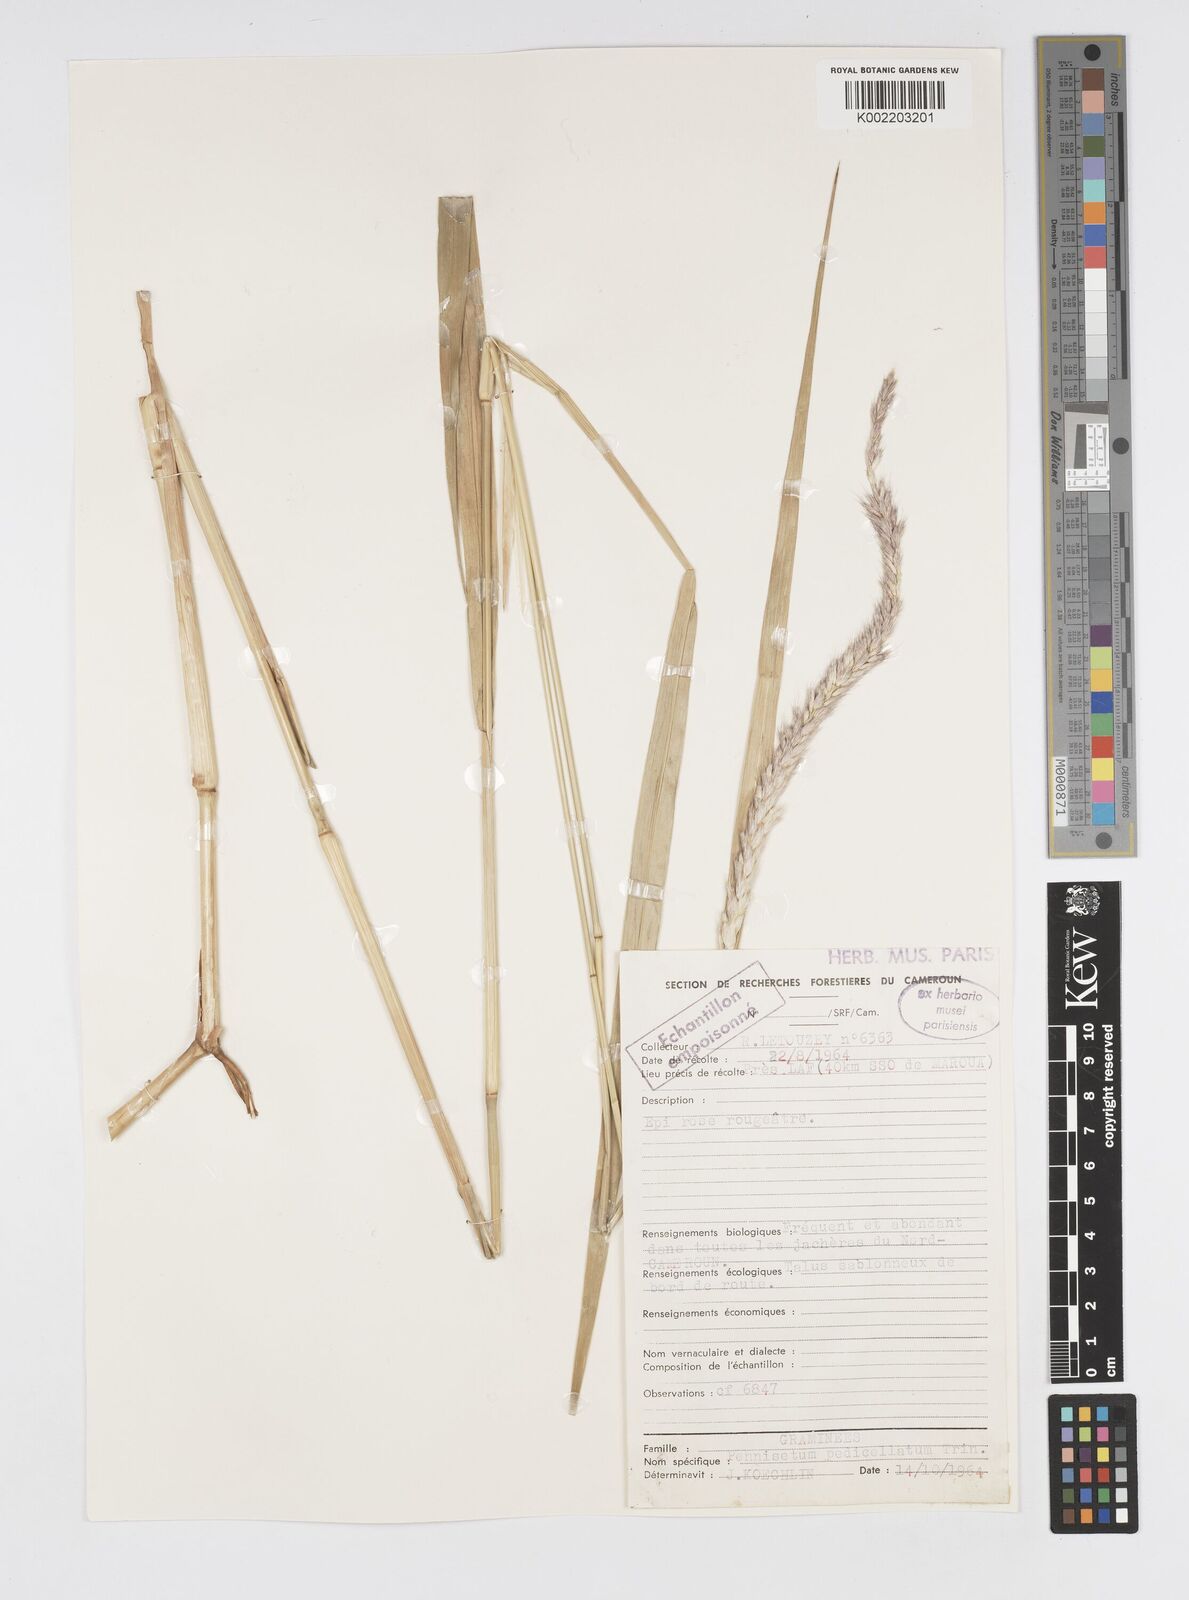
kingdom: Plantae
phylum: Tracheophyta
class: Liliopsida
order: Poales
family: Poaceae
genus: Cenchrus
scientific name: Cenchrus pedicellatus
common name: Hairy fountain grass
